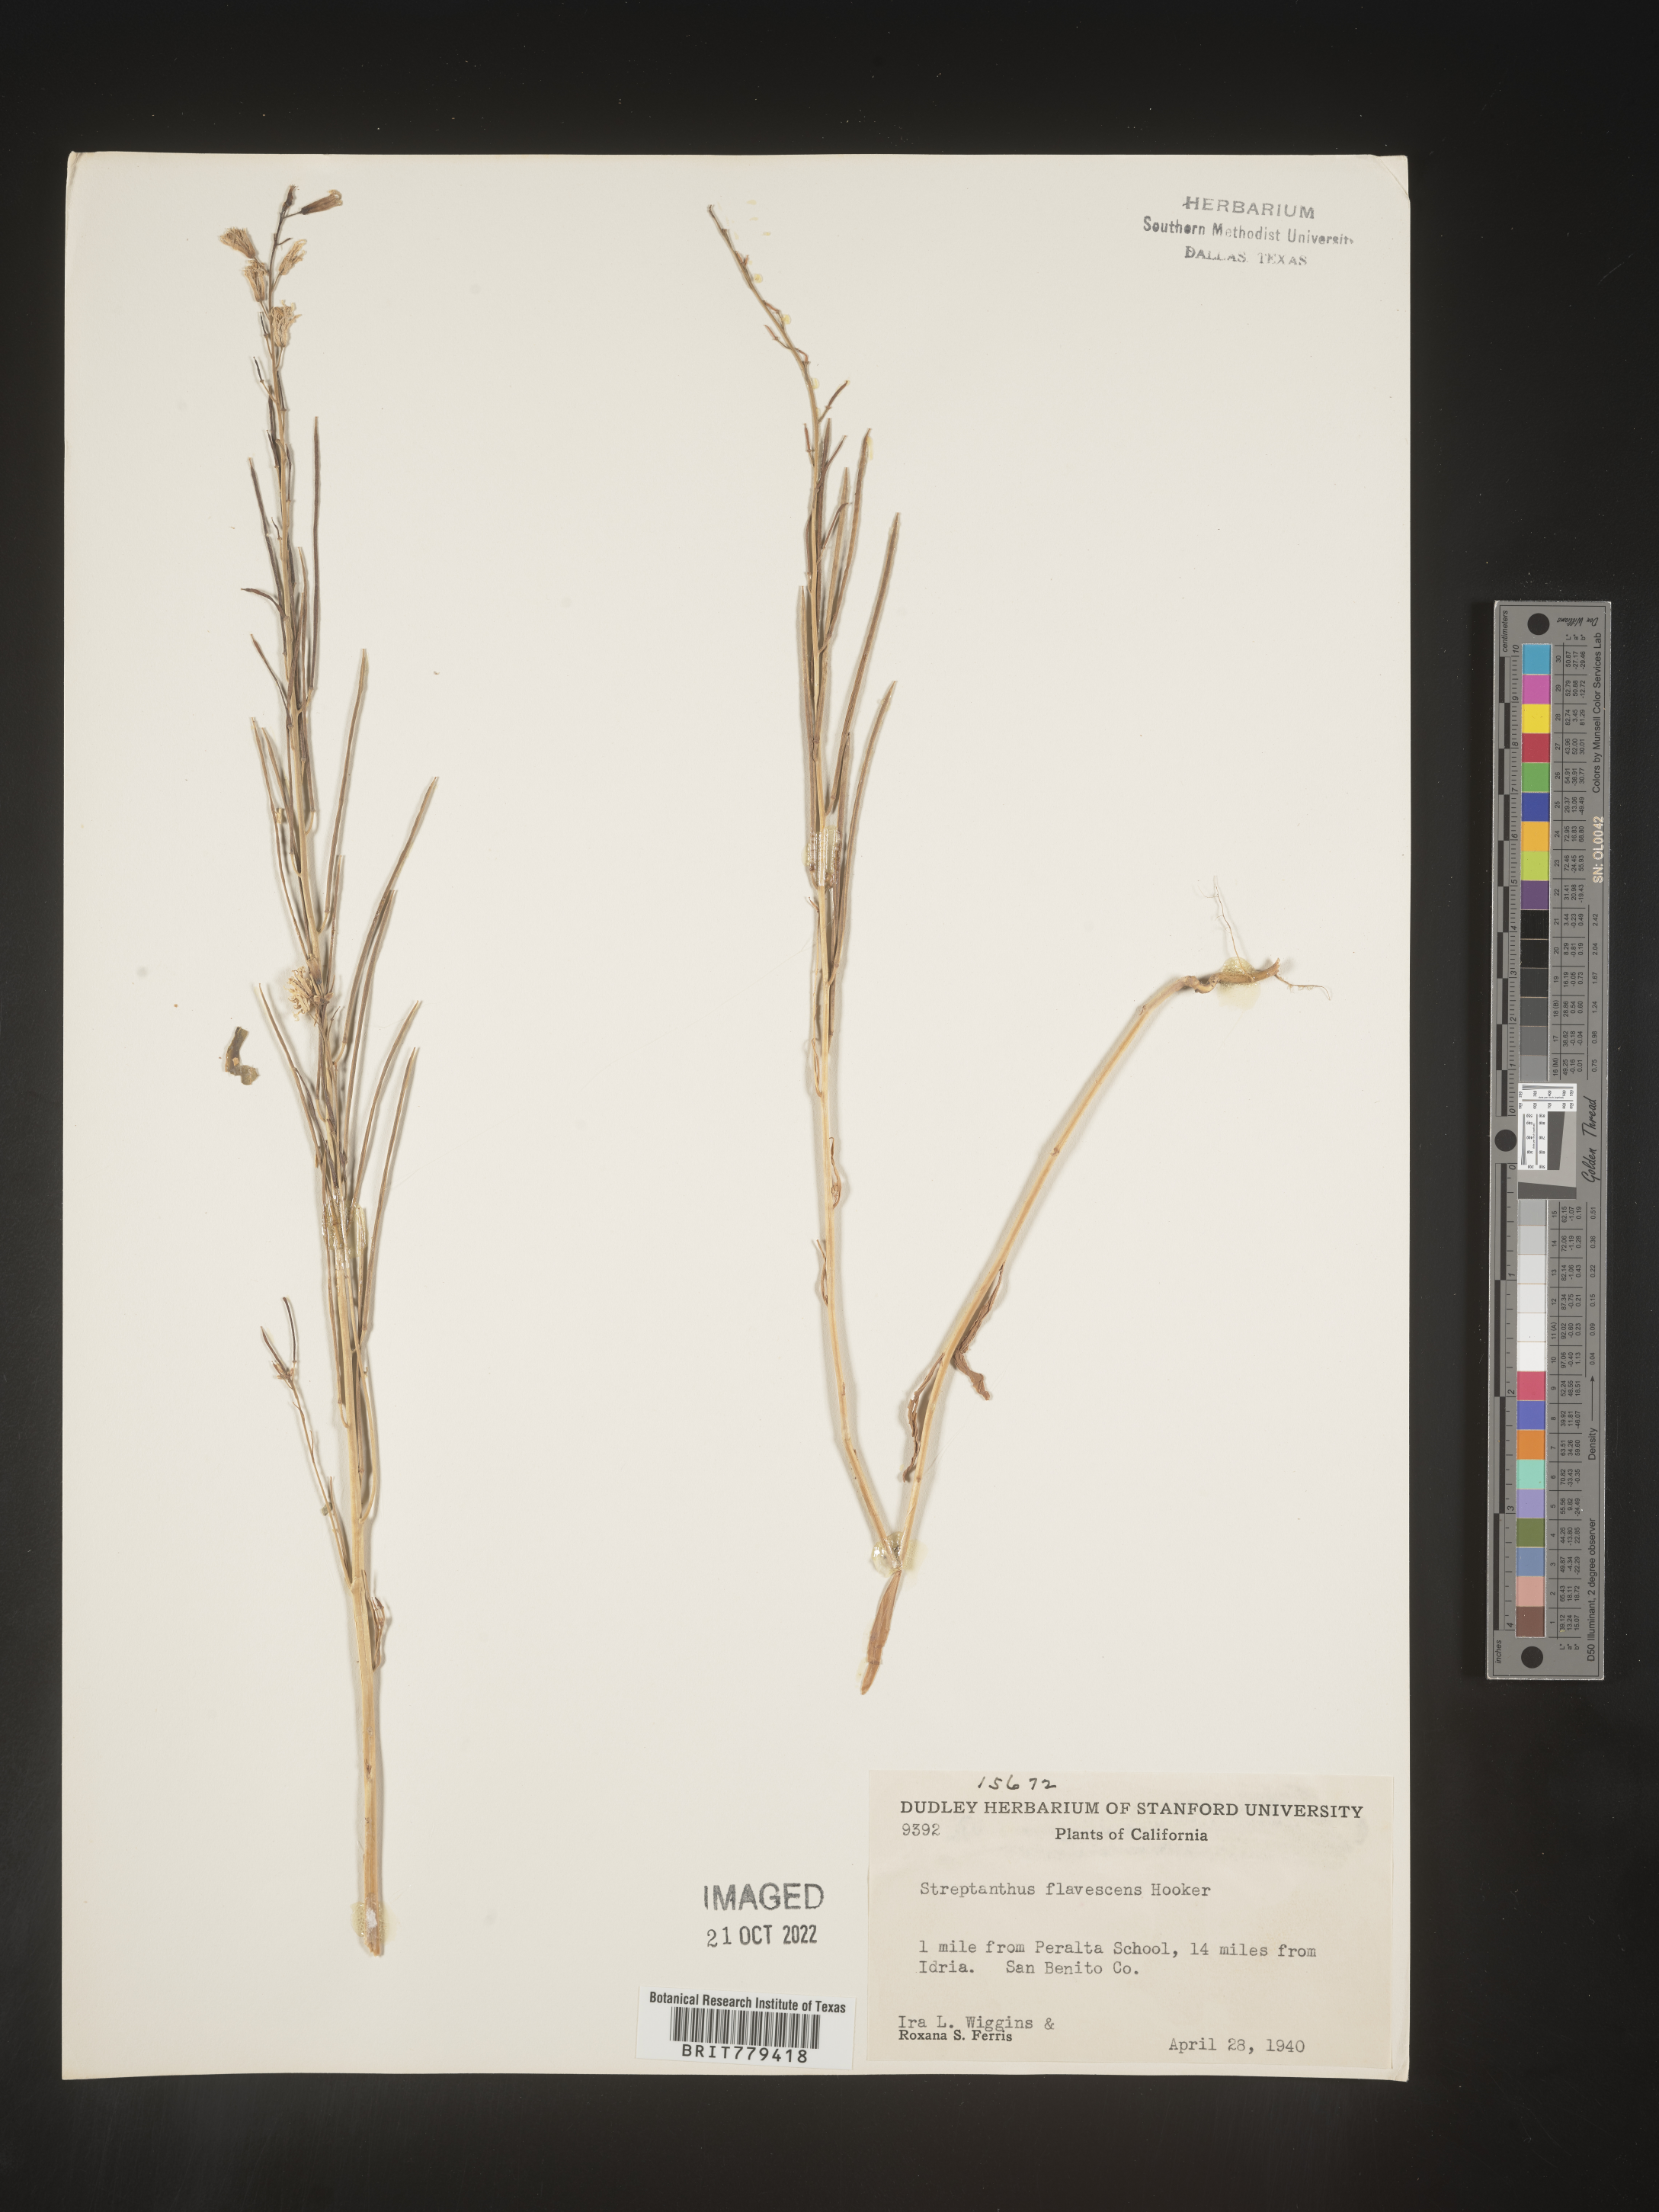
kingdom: Plantae
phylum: Tracheophyta
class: Magnoliopsida
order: Brassicales
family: Brassicaceae
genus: Streptanthus
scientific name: Streptanthus
